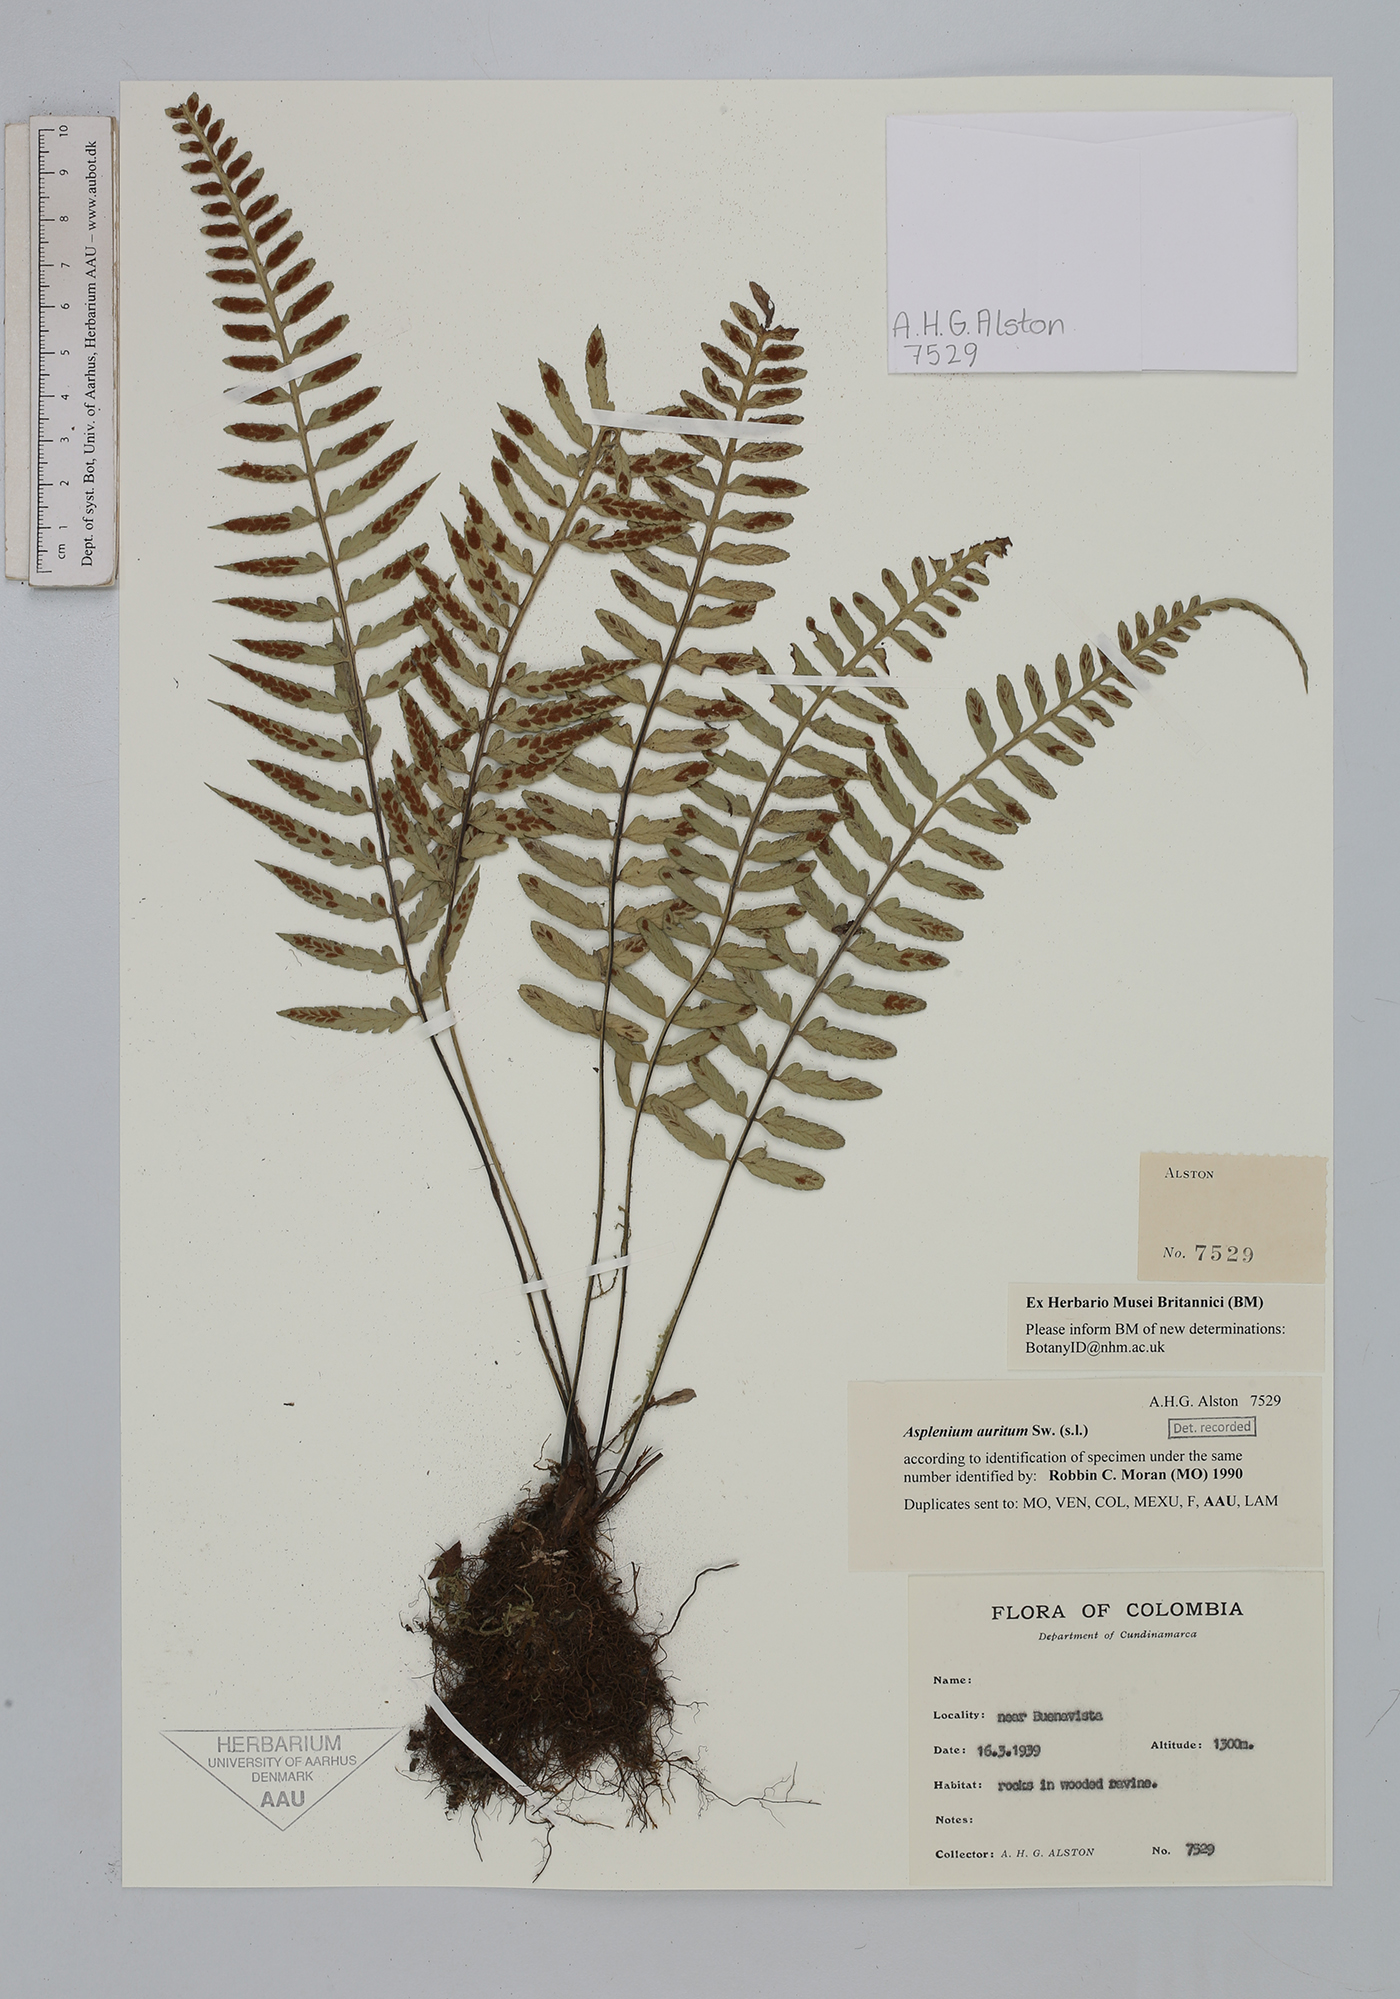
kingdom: Plantae
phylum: Tracheophyta
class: Polypodiopsida
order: Polypodiales
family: Aspleniaceae
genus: Asplenium
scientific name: Asplenium auritum
